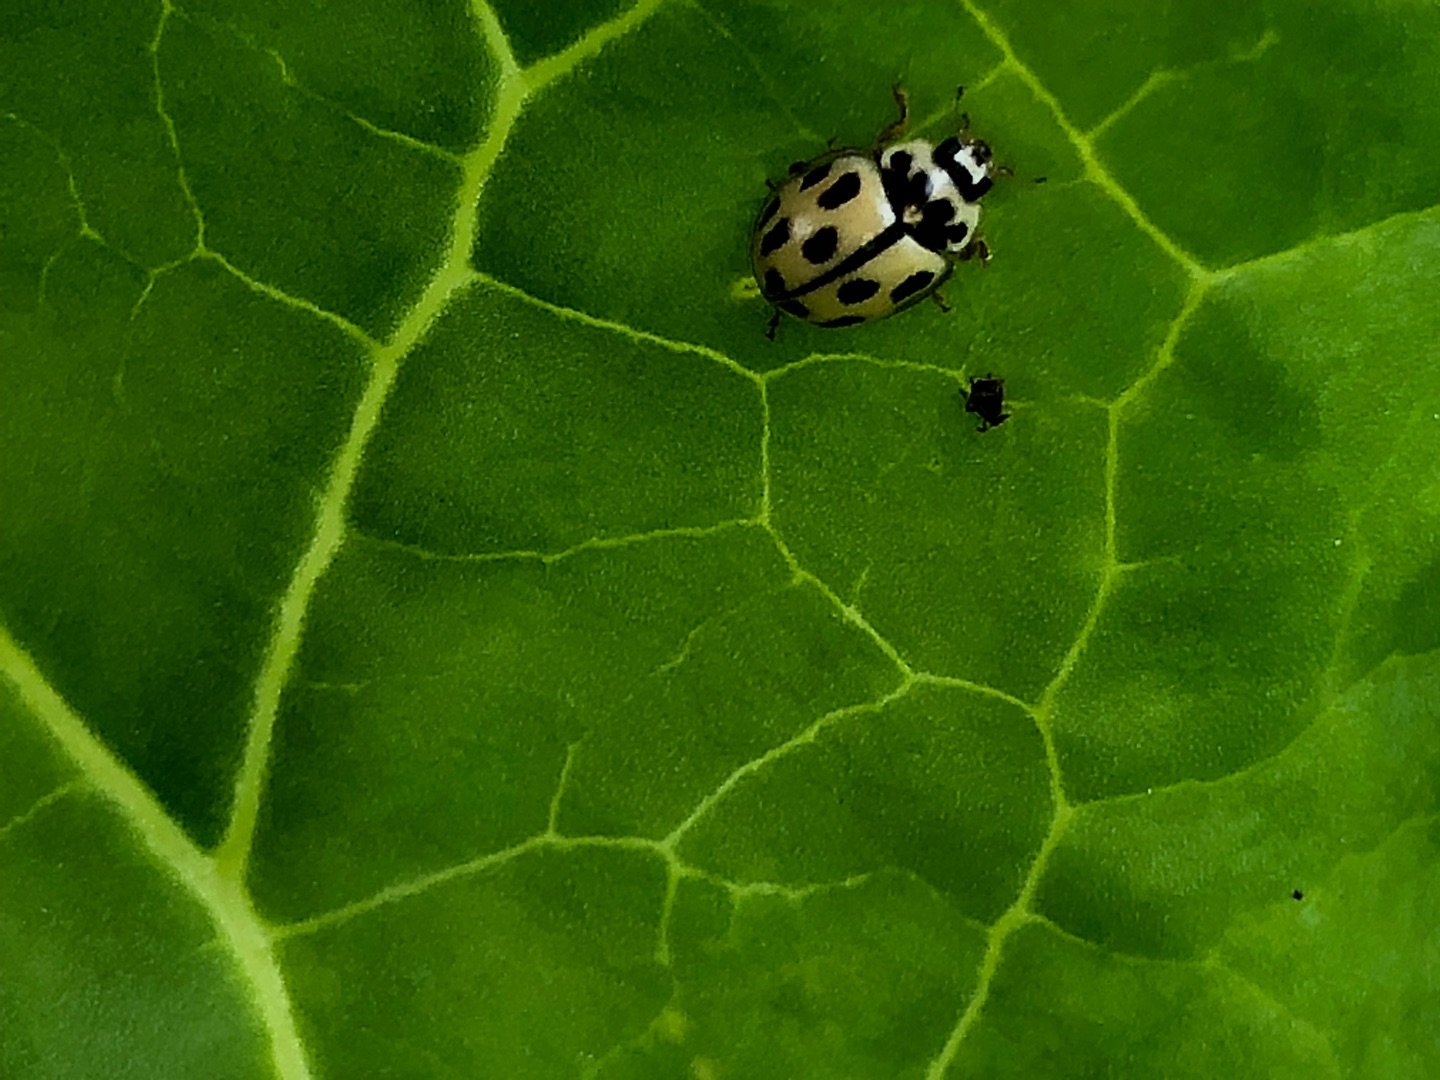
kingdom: Animalia
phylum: Arthropoda
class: Insecta
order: Coleoptera
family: Coccinellidae
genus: Propylaea
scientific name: Propylaea quatuordecimpunctata
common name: Skakbræt
